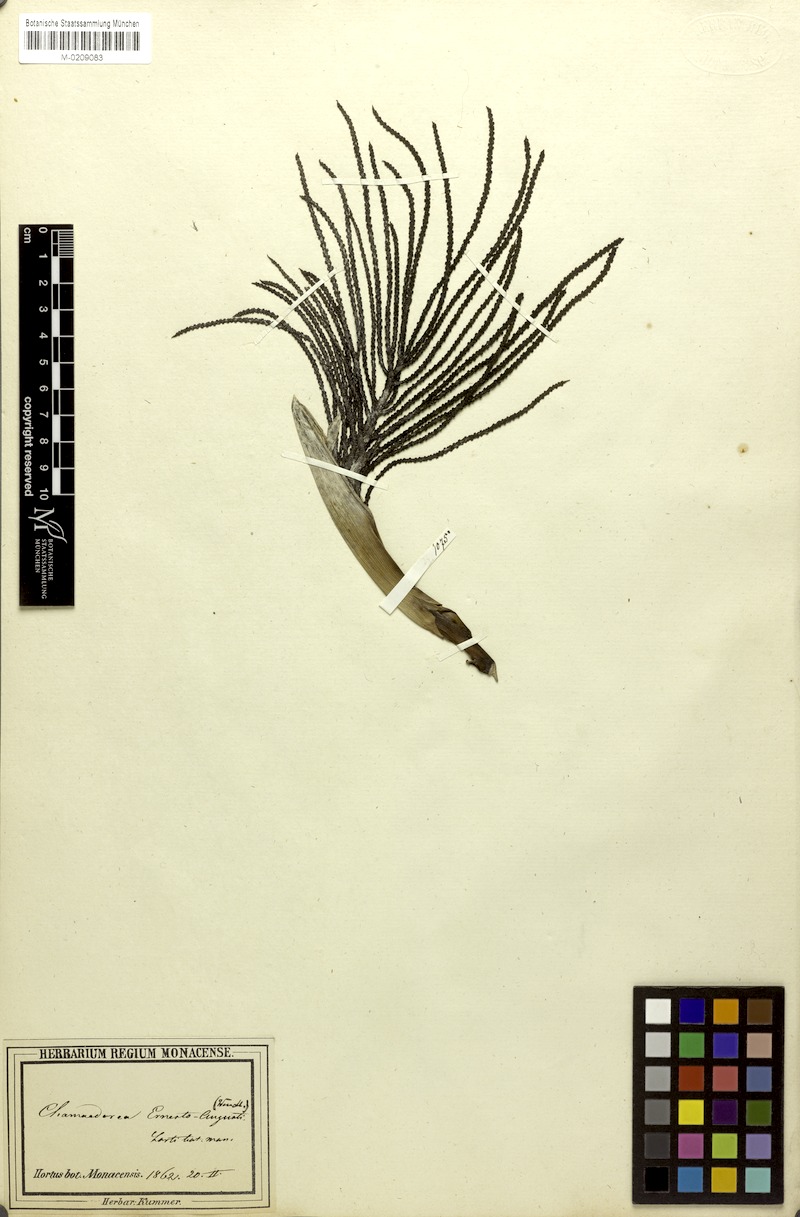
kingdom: Plantae
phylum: Tracheophyta
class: Liliopsida
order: Arecales
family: Arecaceae
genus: Chamaedorea
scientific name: Chamaedorea ernesti-augusti
